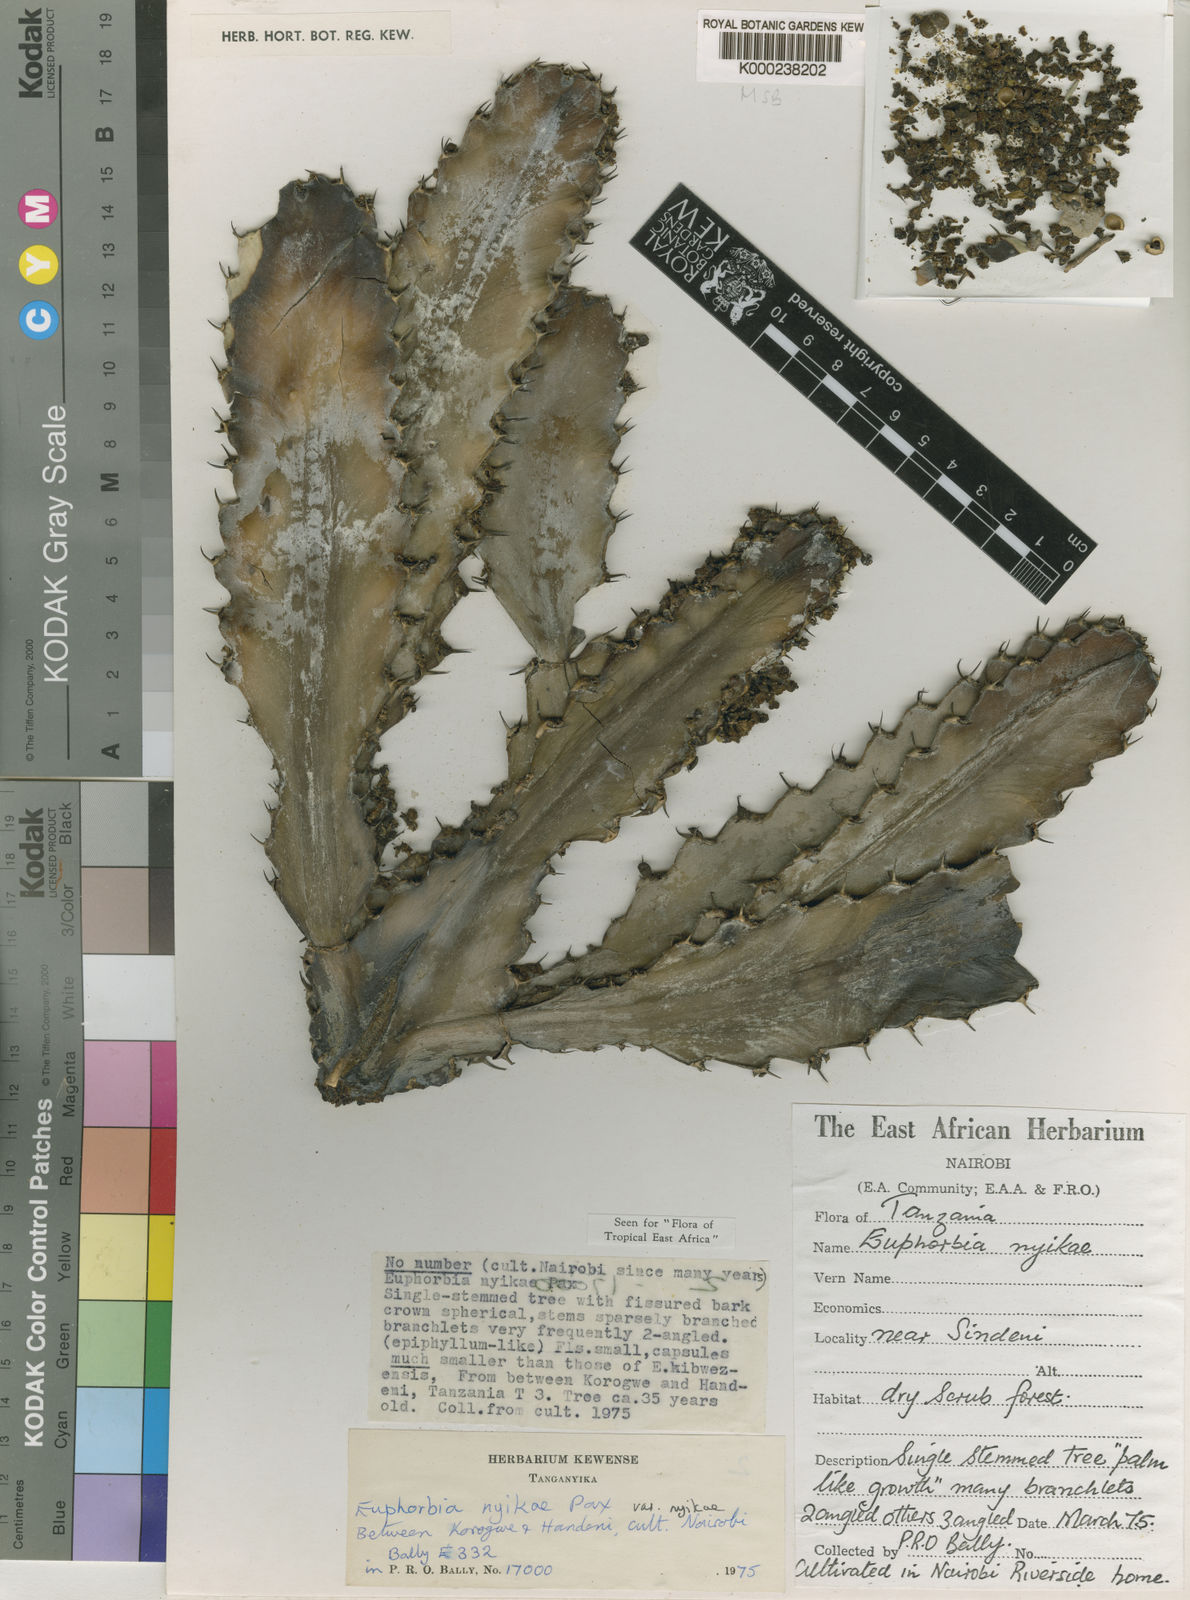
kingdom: Plantae
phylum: Tracheophyta
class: Magnoliopsida
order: Malpighiales
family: Euphorbiaceae
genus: Euphorbia
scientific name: Euphorbia nyikae
